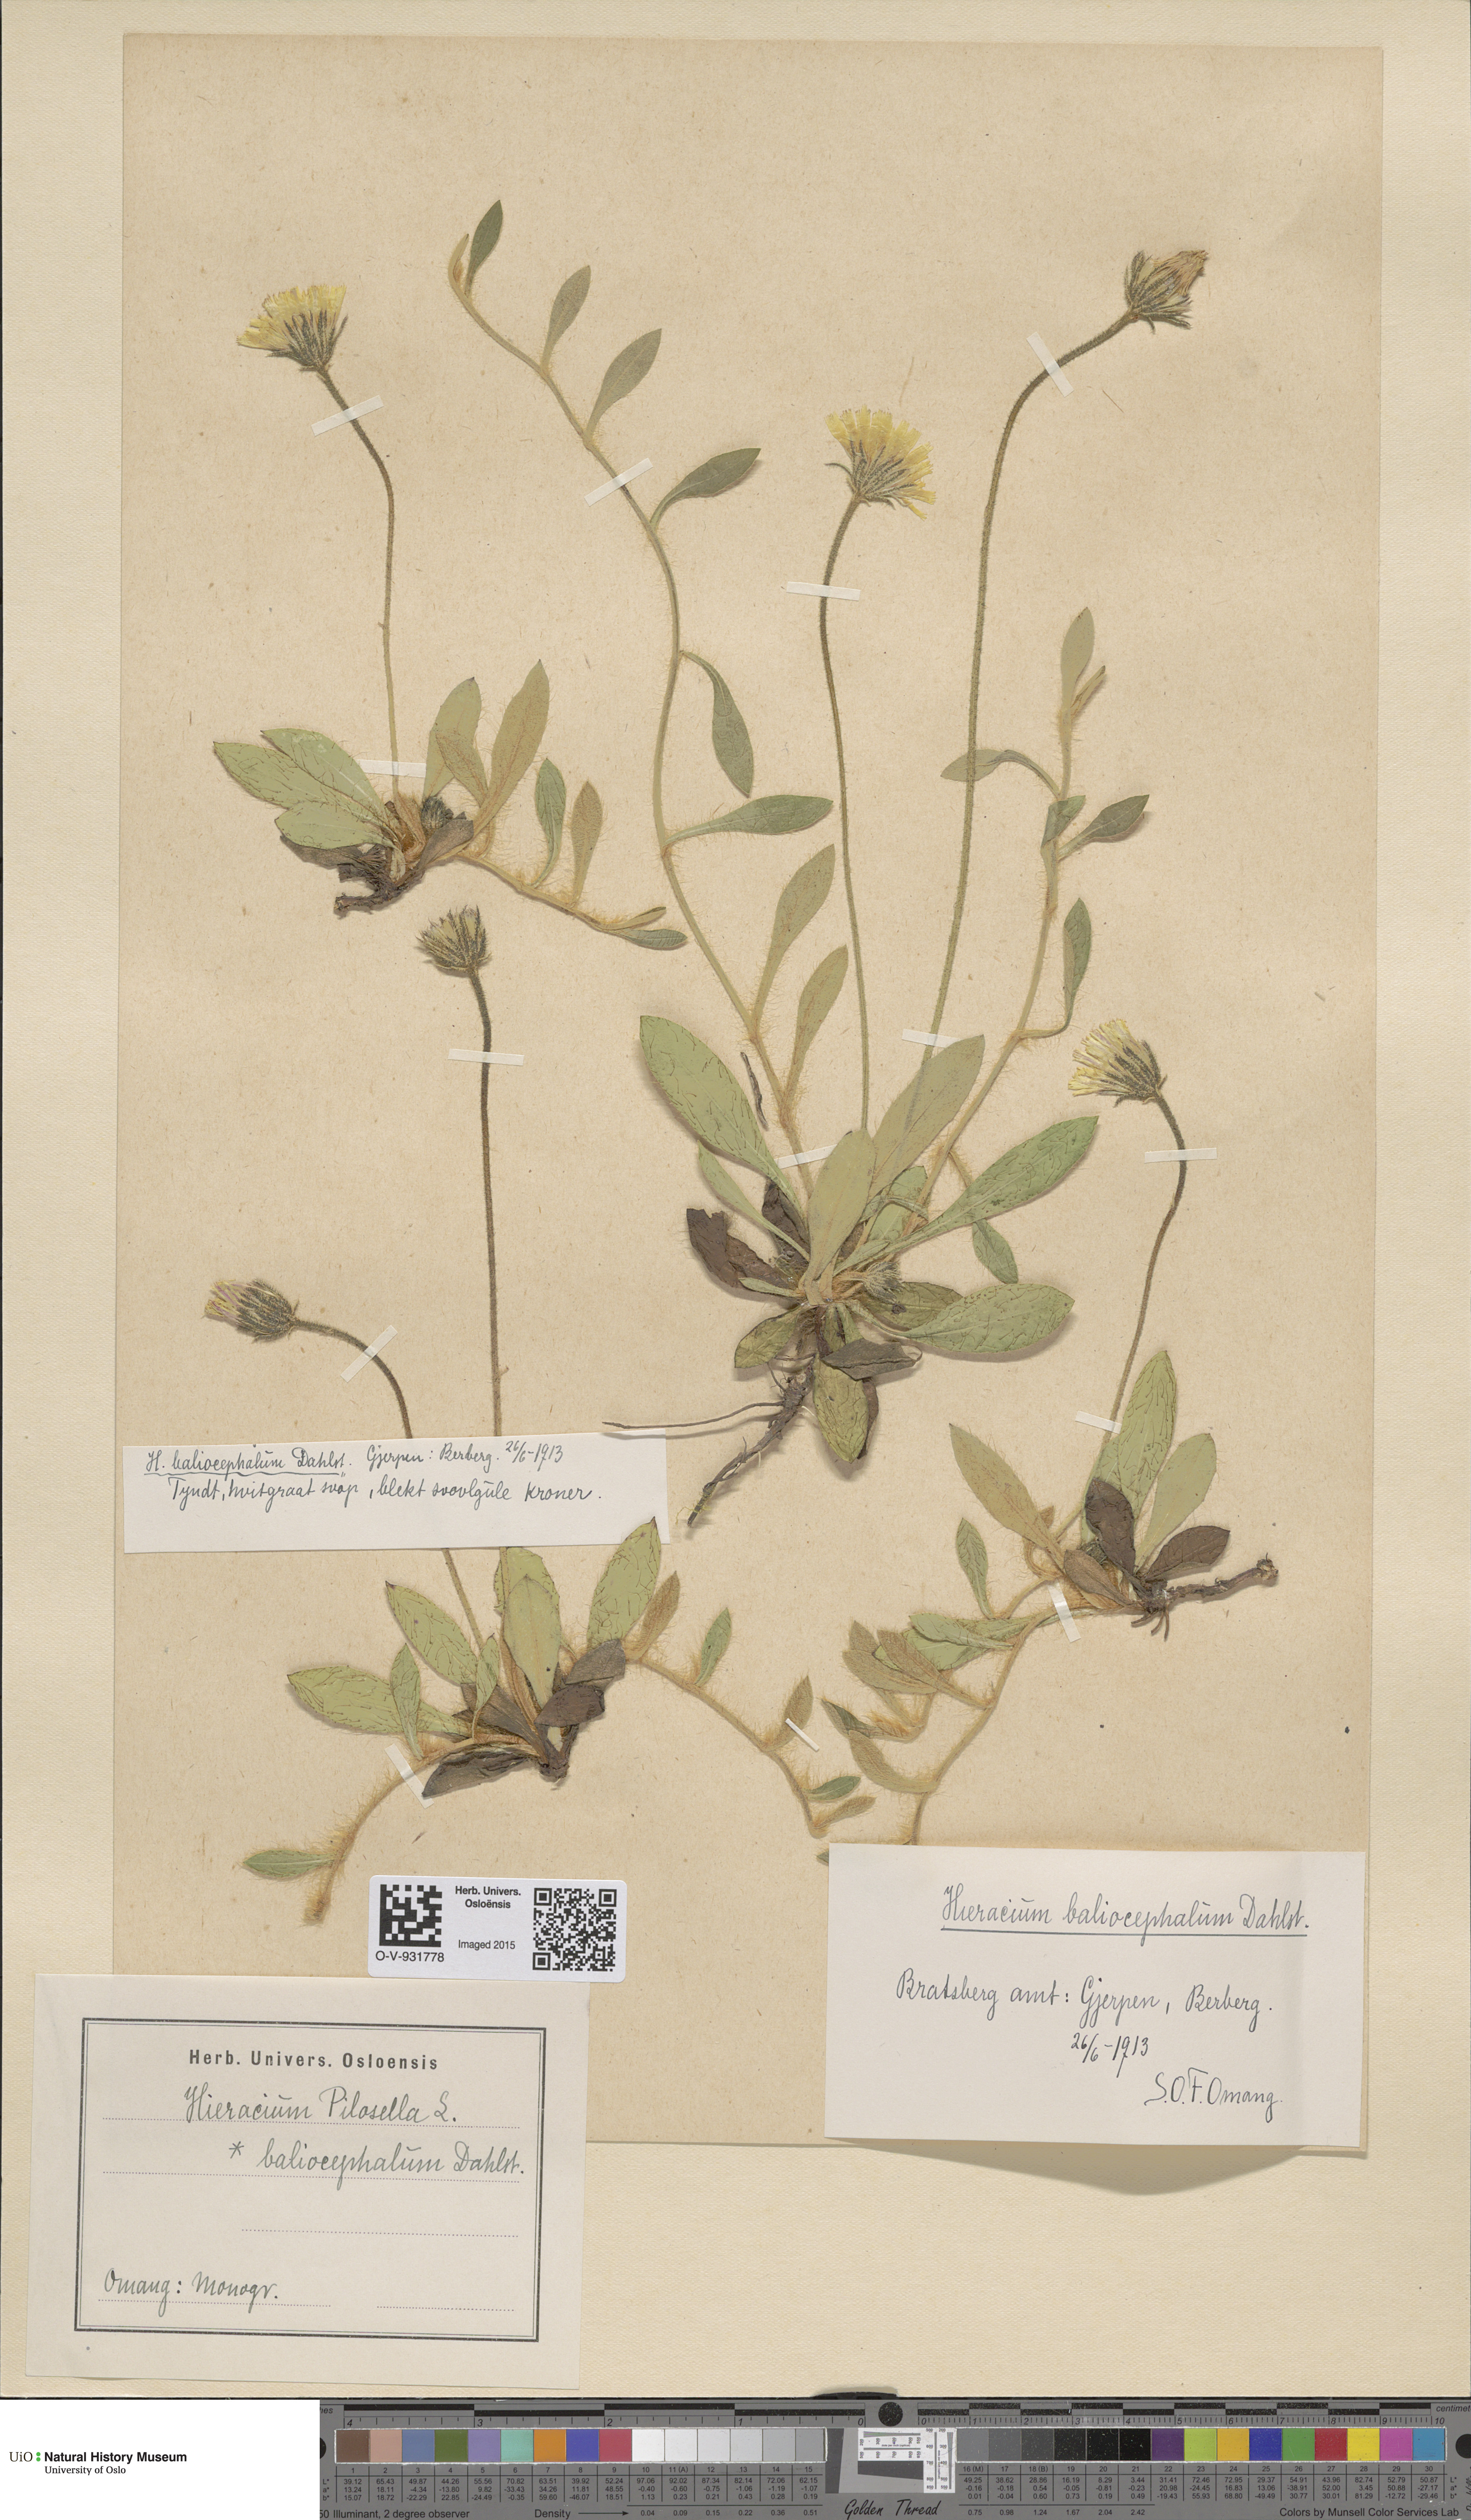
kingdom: Plantae
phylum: Tracheophyta
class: Magnoliopsida
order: Asterales
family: Asteraceae
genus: Pilosella
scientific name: Pilosella officinarum
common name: Mouse-ear hawkweed
